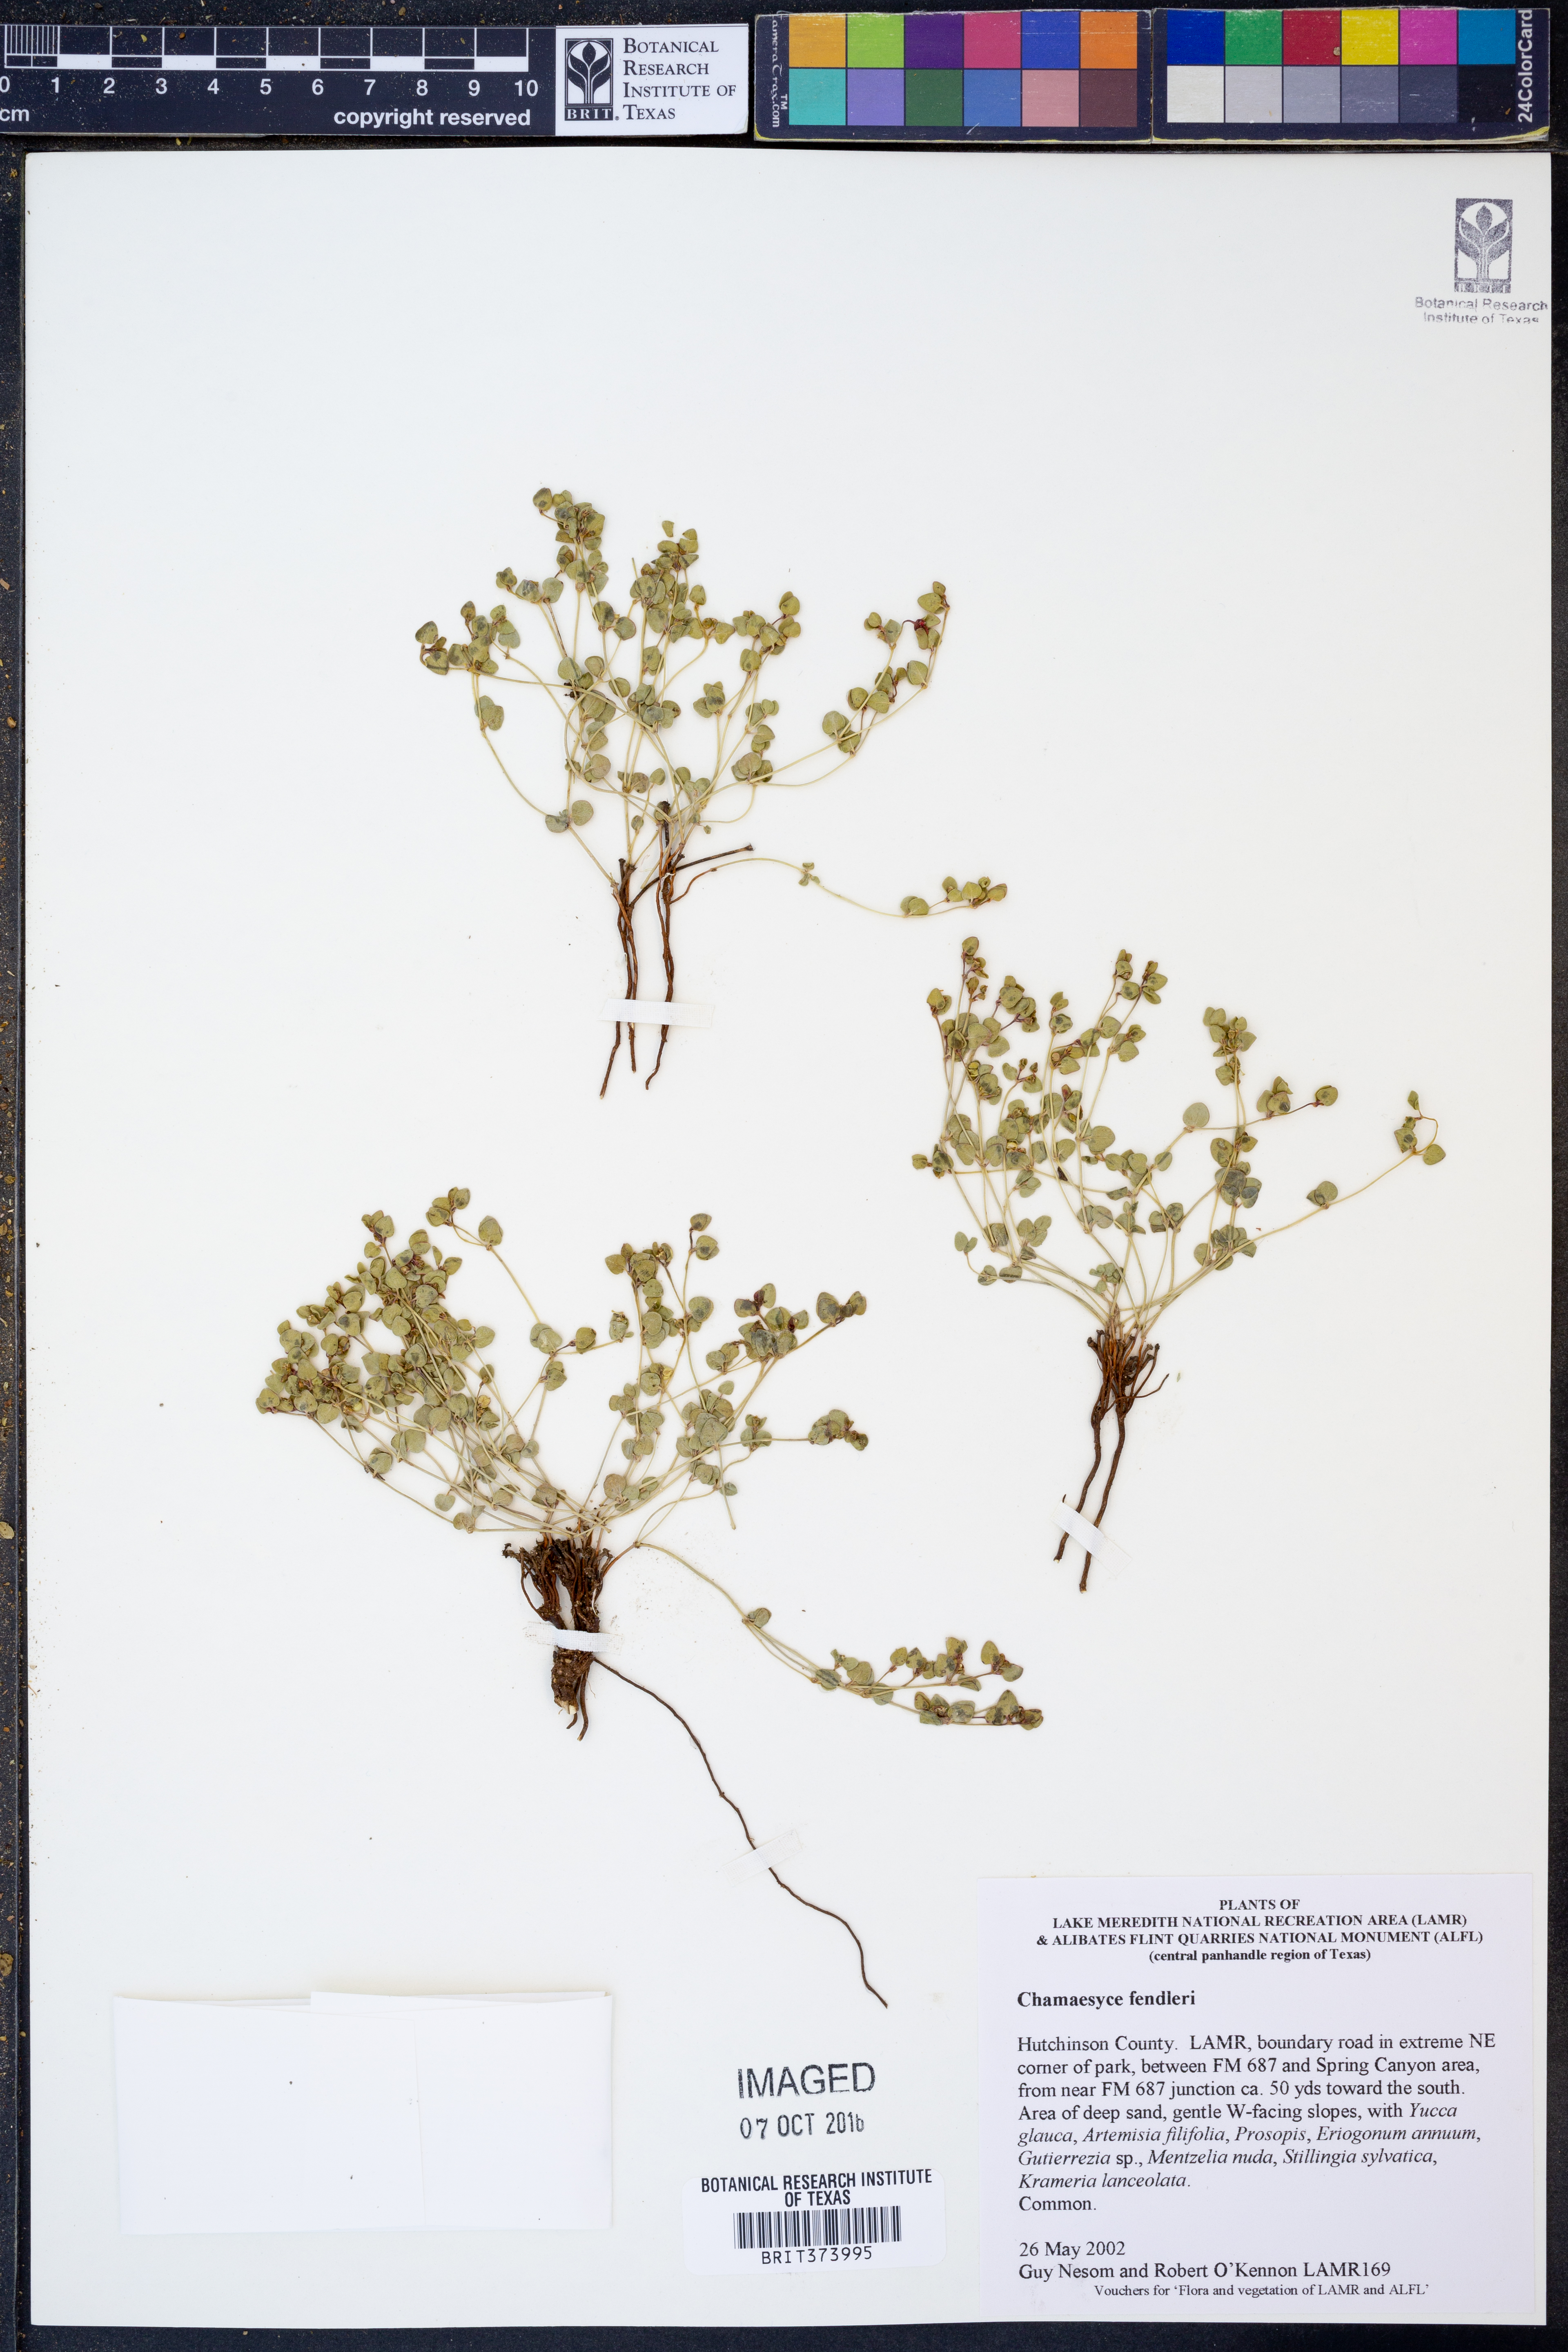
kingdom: Plantae
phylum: Tracheophyta
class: Magnoliopsida
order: Malpighiales
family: Euphorbiaceae
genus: Euphorbia
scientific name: Euphorbia fendleri
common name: Fendler's euphorbia
